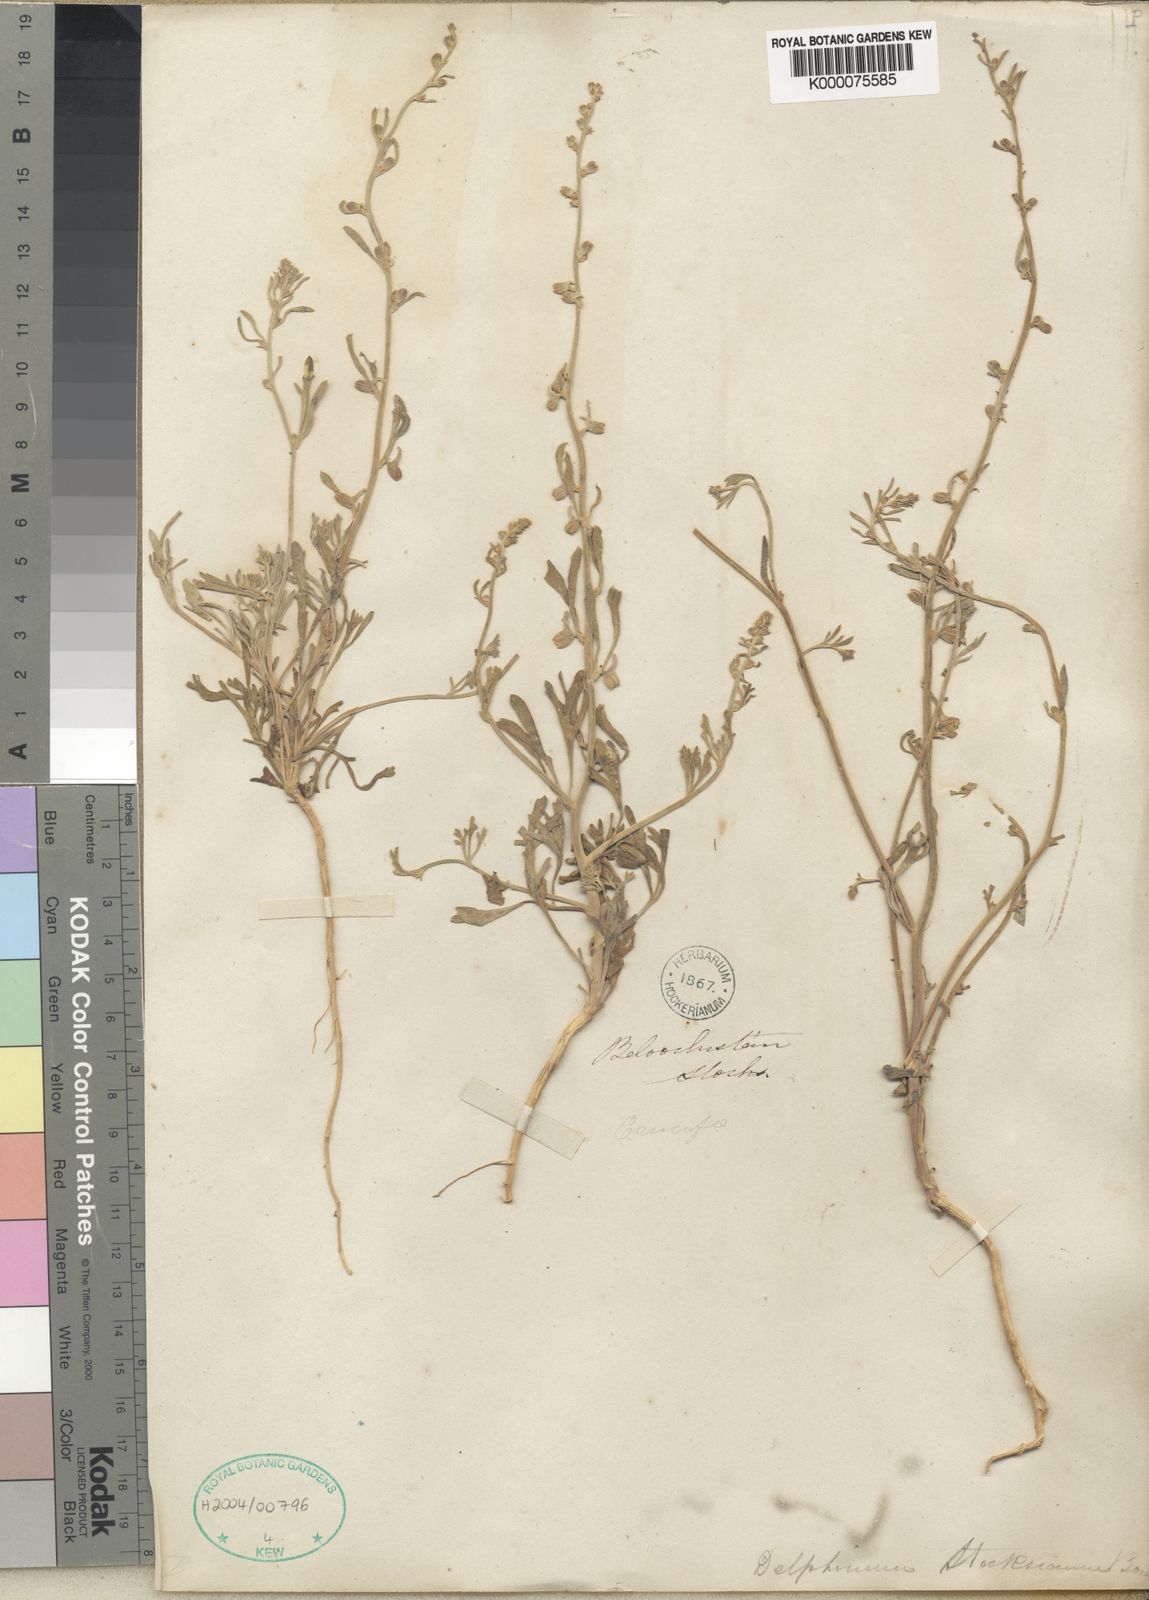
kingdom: Plantae
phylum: Tracheophyta
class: Magnoliopsida
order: Ranunculales
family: Ranunculaceae
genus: Delphinium
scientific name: Delphinium stocksianum
